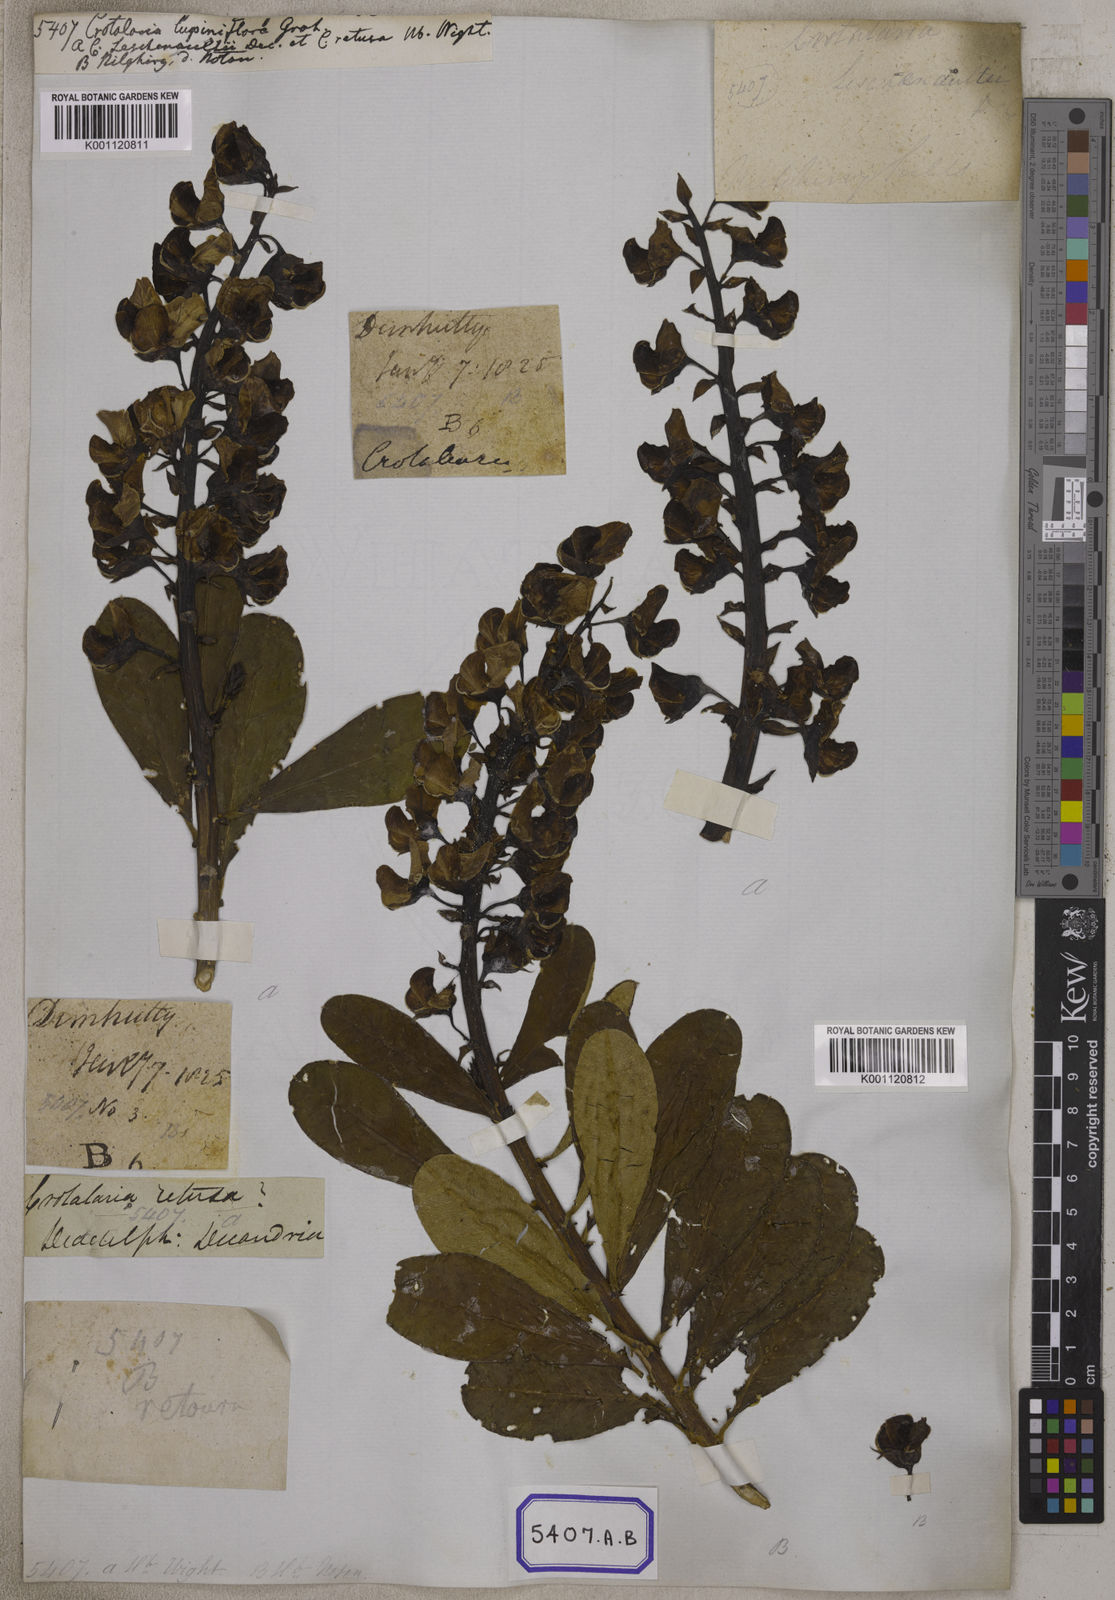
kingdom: Plantae
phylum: Tracheophyta
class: Magnoliopsida
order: Fabales
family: Fabaceae
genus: Crotalaria
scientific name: Crotalaria spectabilis
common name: Showy rattlebox
